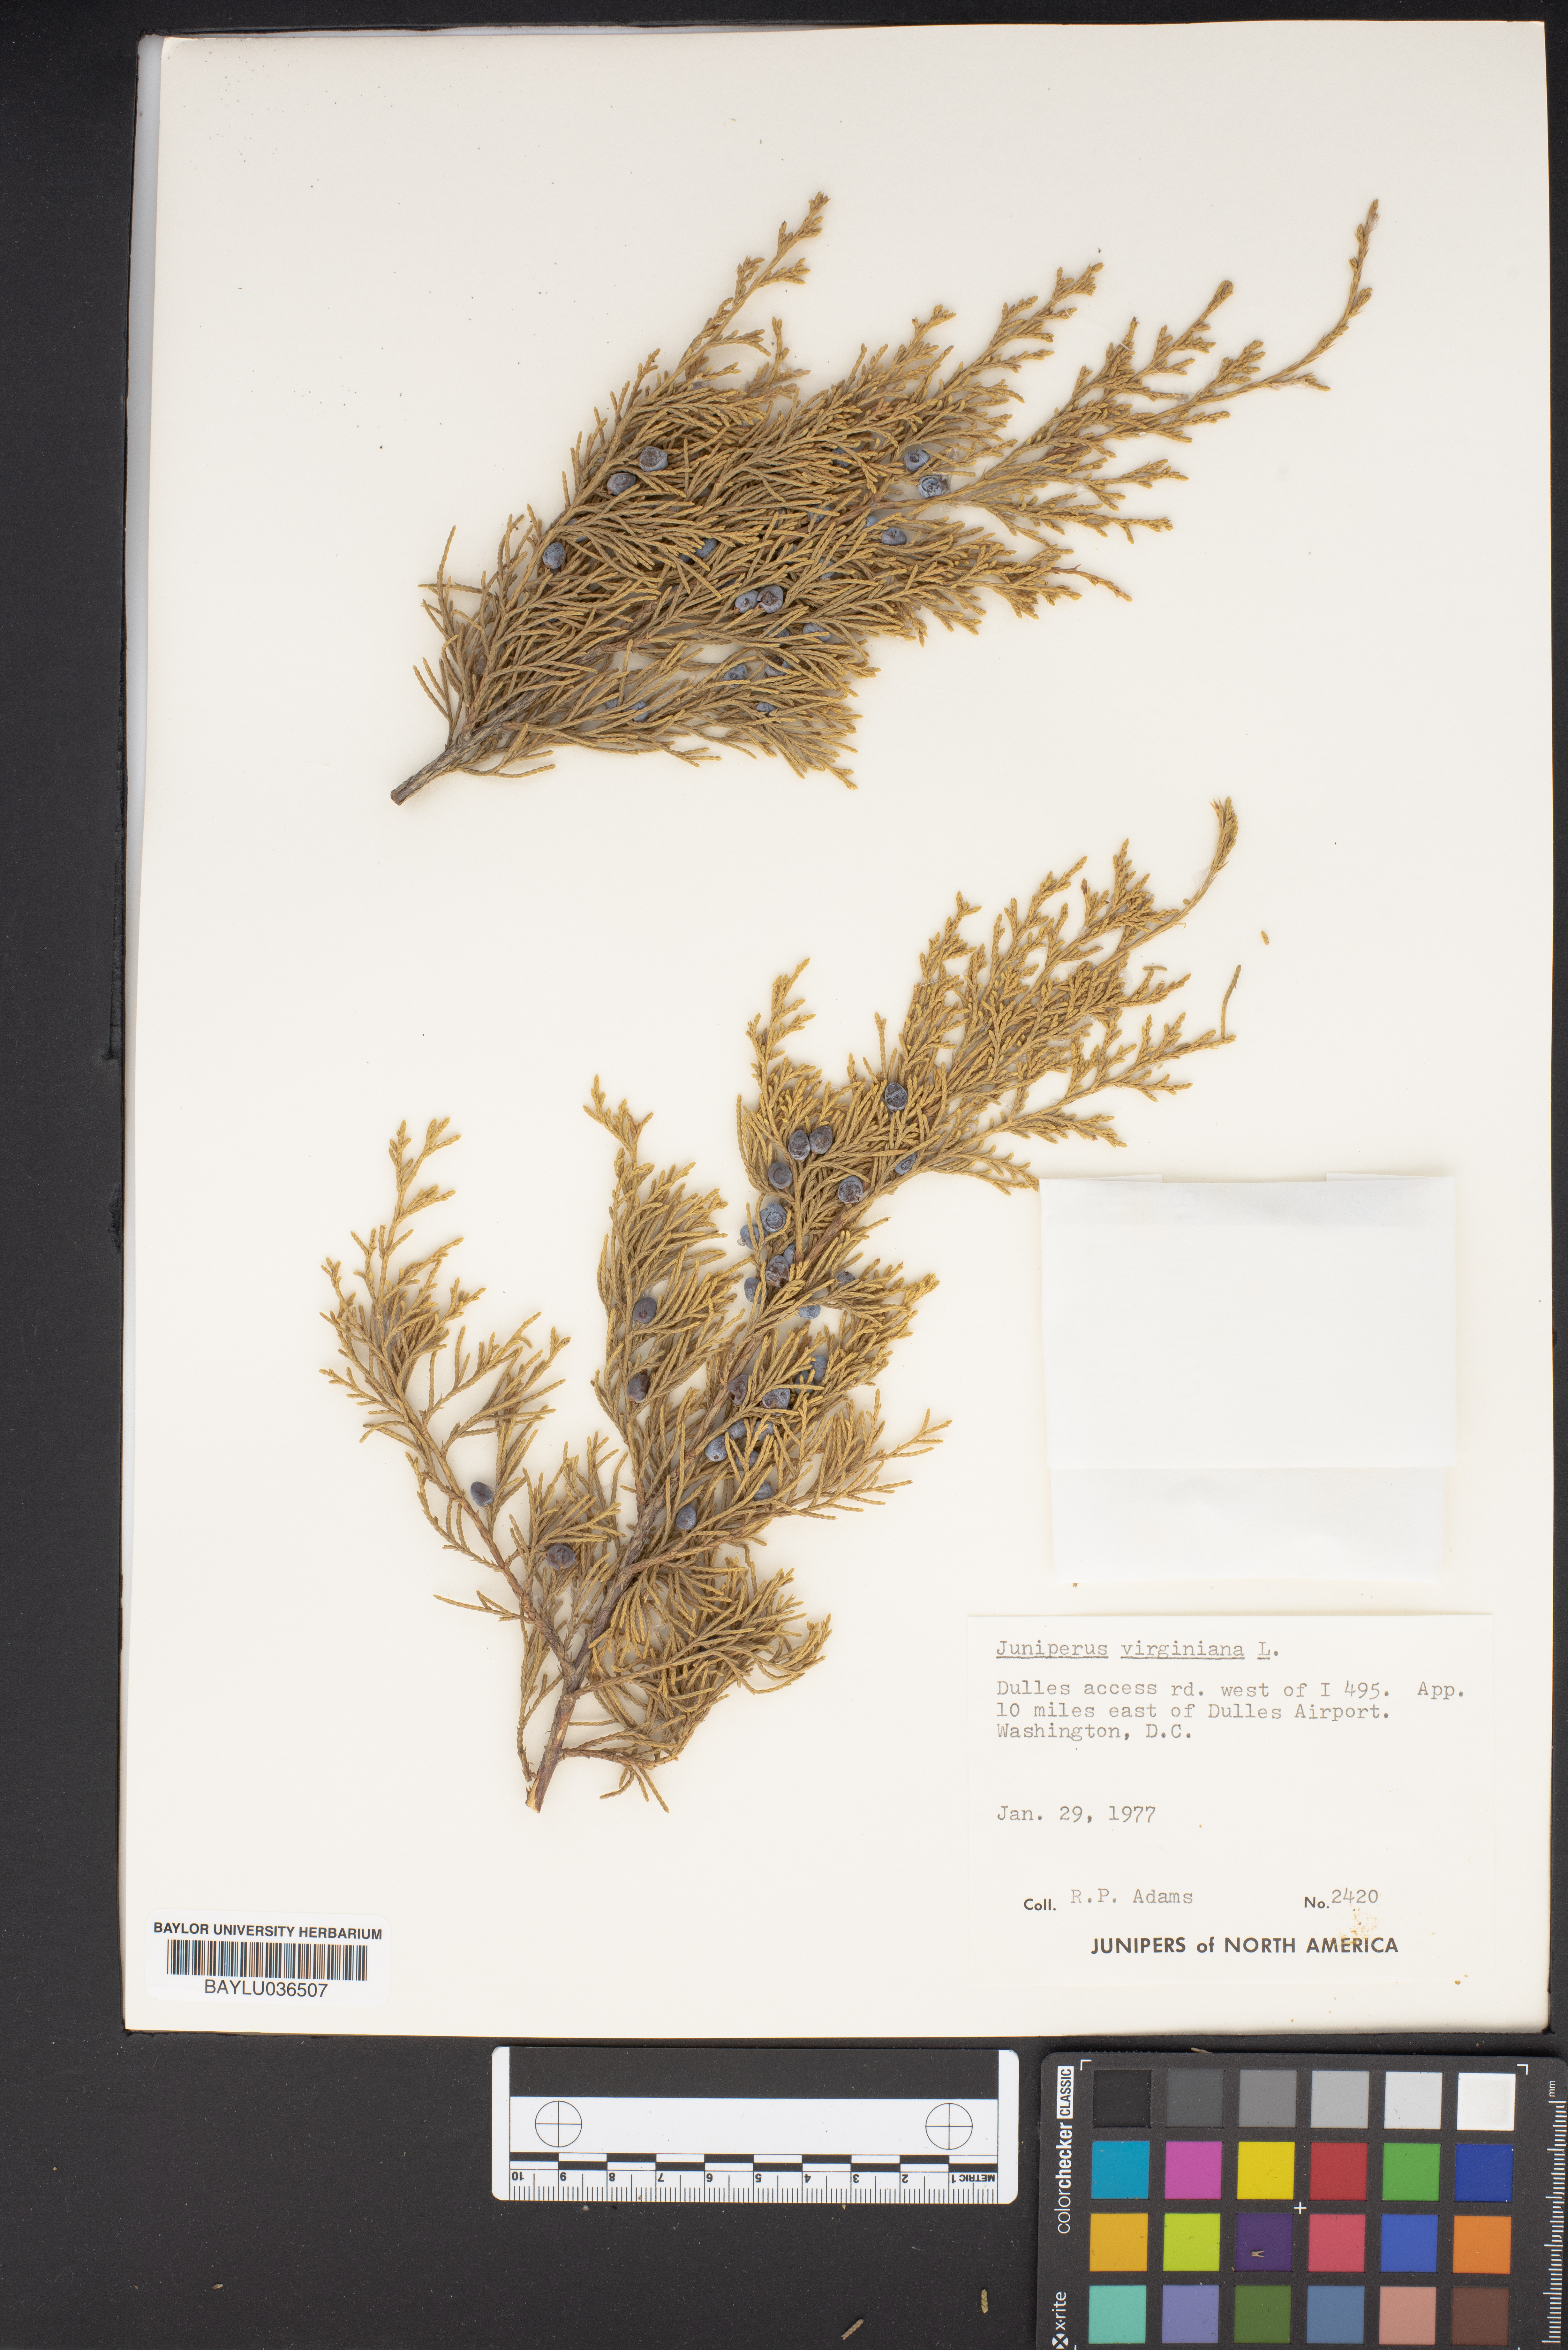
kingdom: Plantae
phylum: Tracheophyta
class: Pinopsida
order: Pinales
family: Cupressaceae
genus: Juniperus
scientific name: Juniperus virginiana
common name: Red juniper
